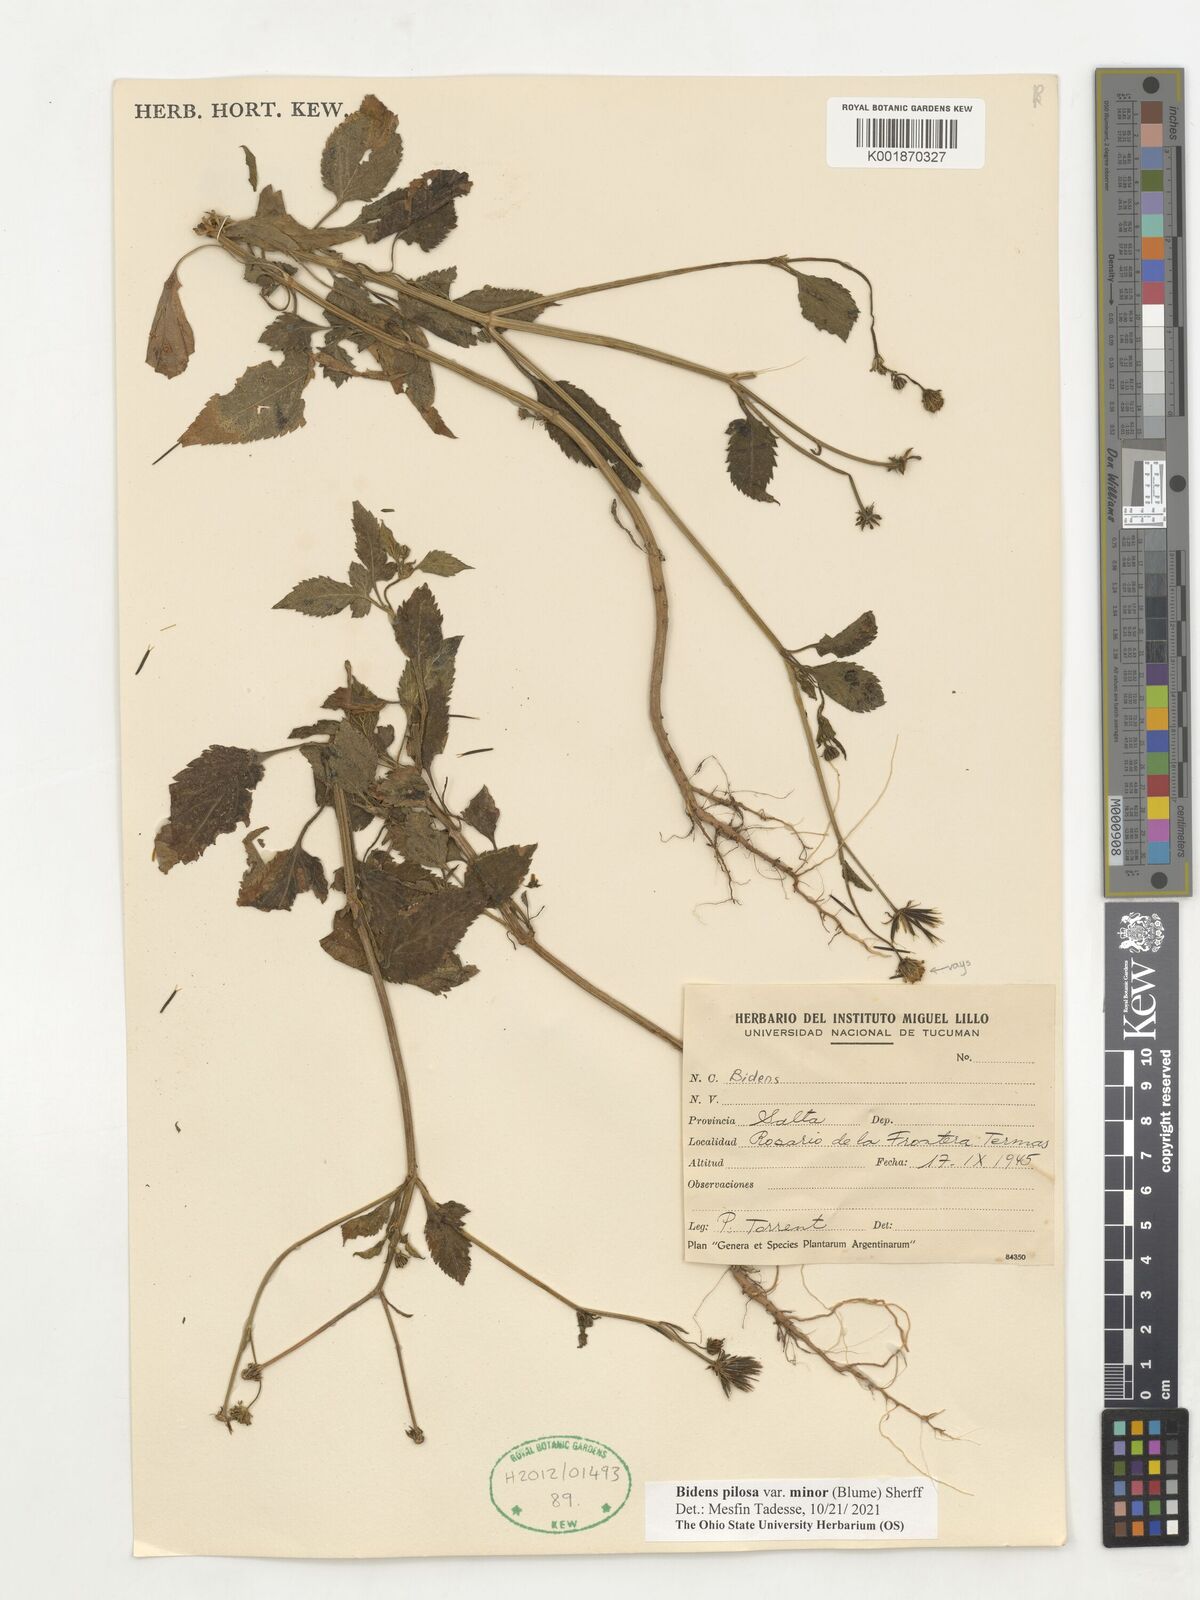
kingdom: Plantae
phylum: Tracheophyta
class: Magnoliopsida
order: Asterales
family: Asteraceae
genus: Bidens
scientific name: Bidens pilosa
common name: Black-jack
